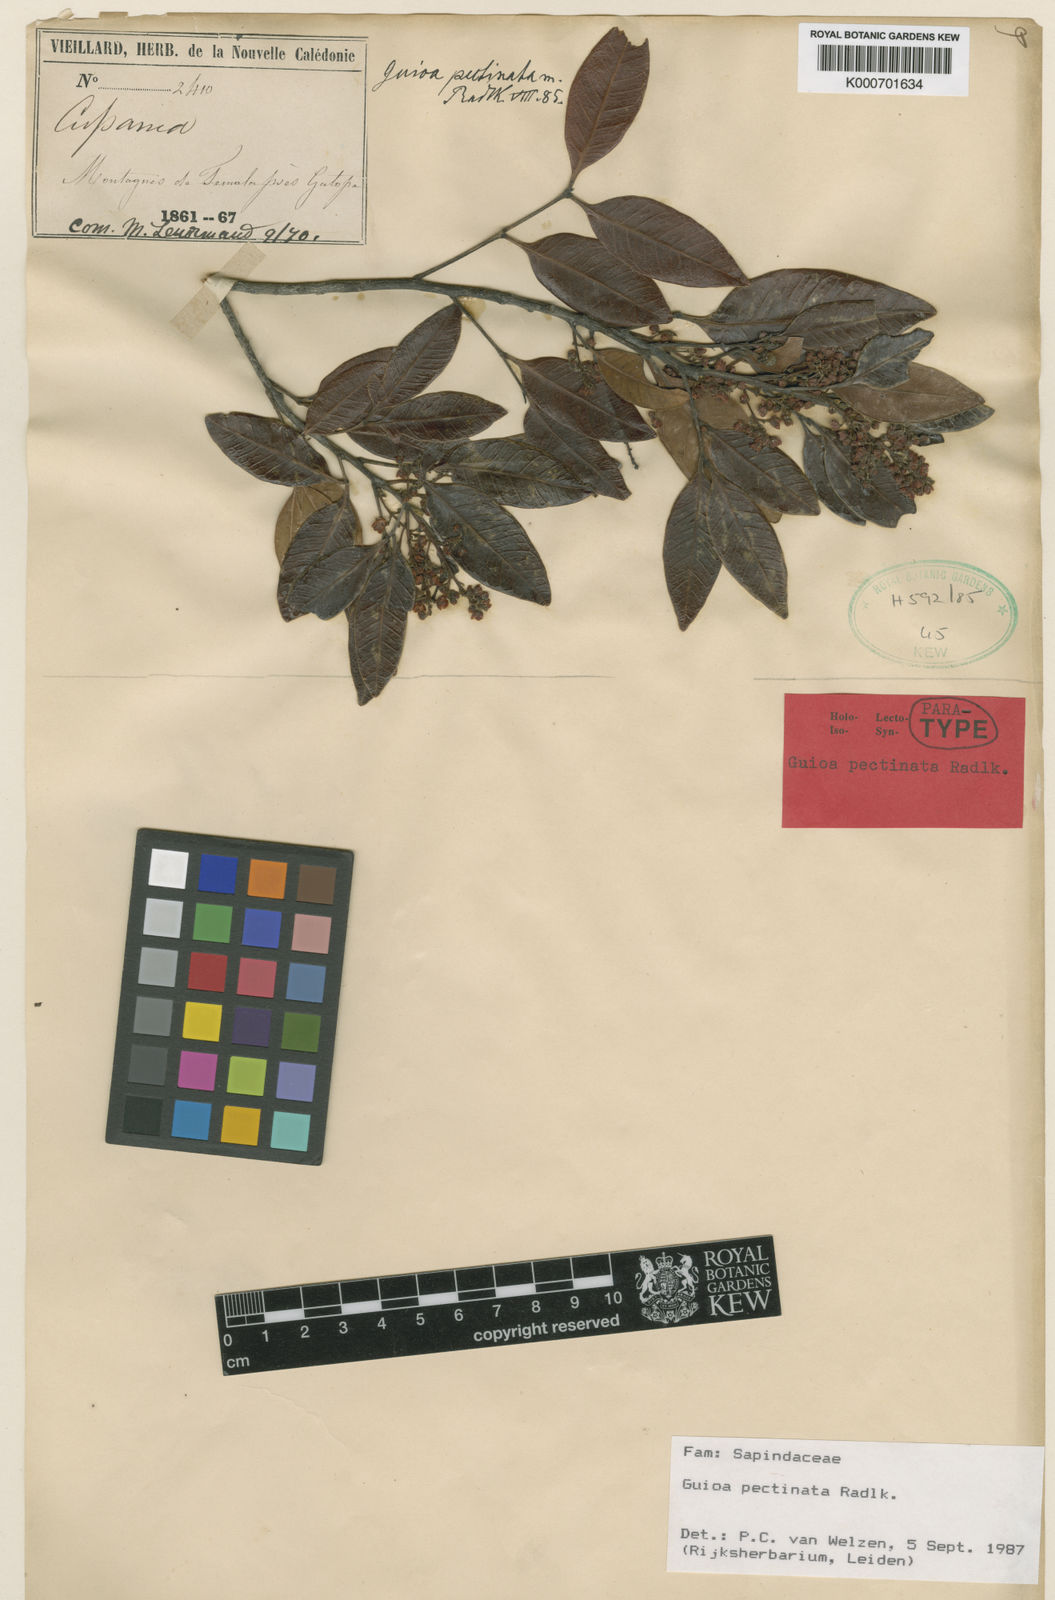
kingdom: Plantae
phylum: Tracheophyta
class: Magnoliopsida
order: Sapindales
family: Sapindaceae
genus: Guioa
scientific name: Guioa pectinata
